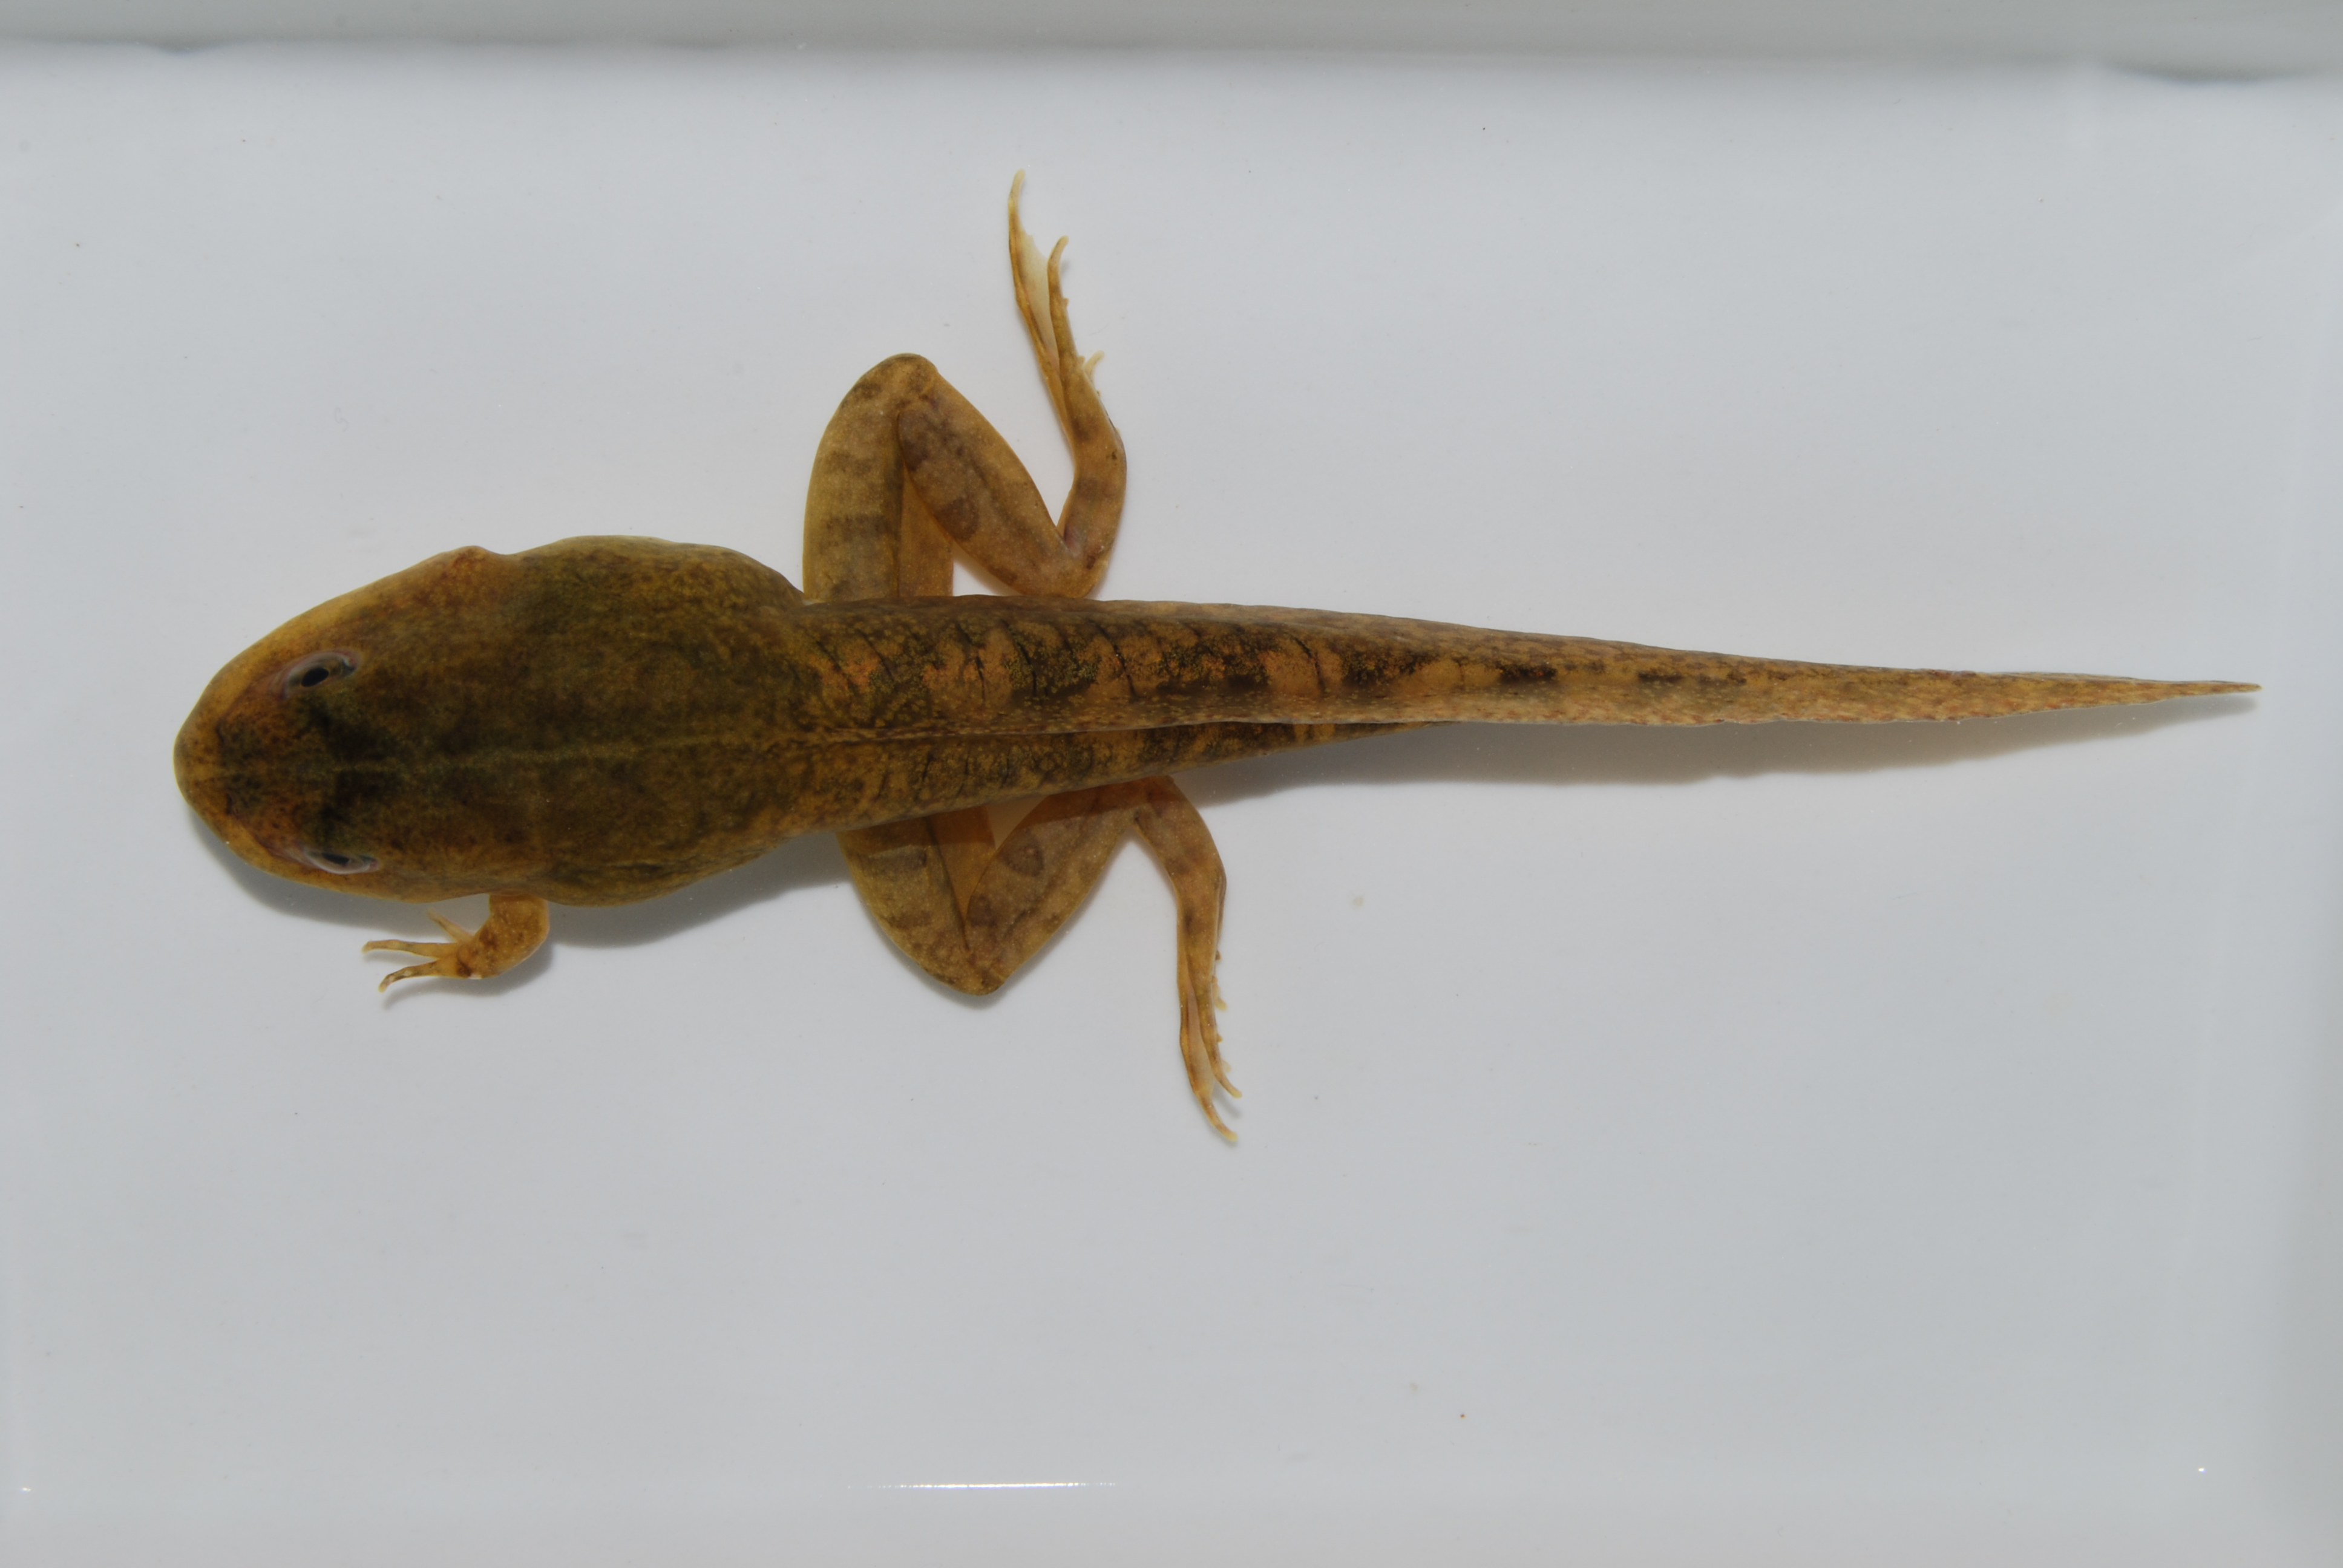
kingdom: Animalia
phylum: Chordata
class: Amphibia
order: Anura
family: Pyxicephalidae
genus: Amietia
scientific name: Amietia
